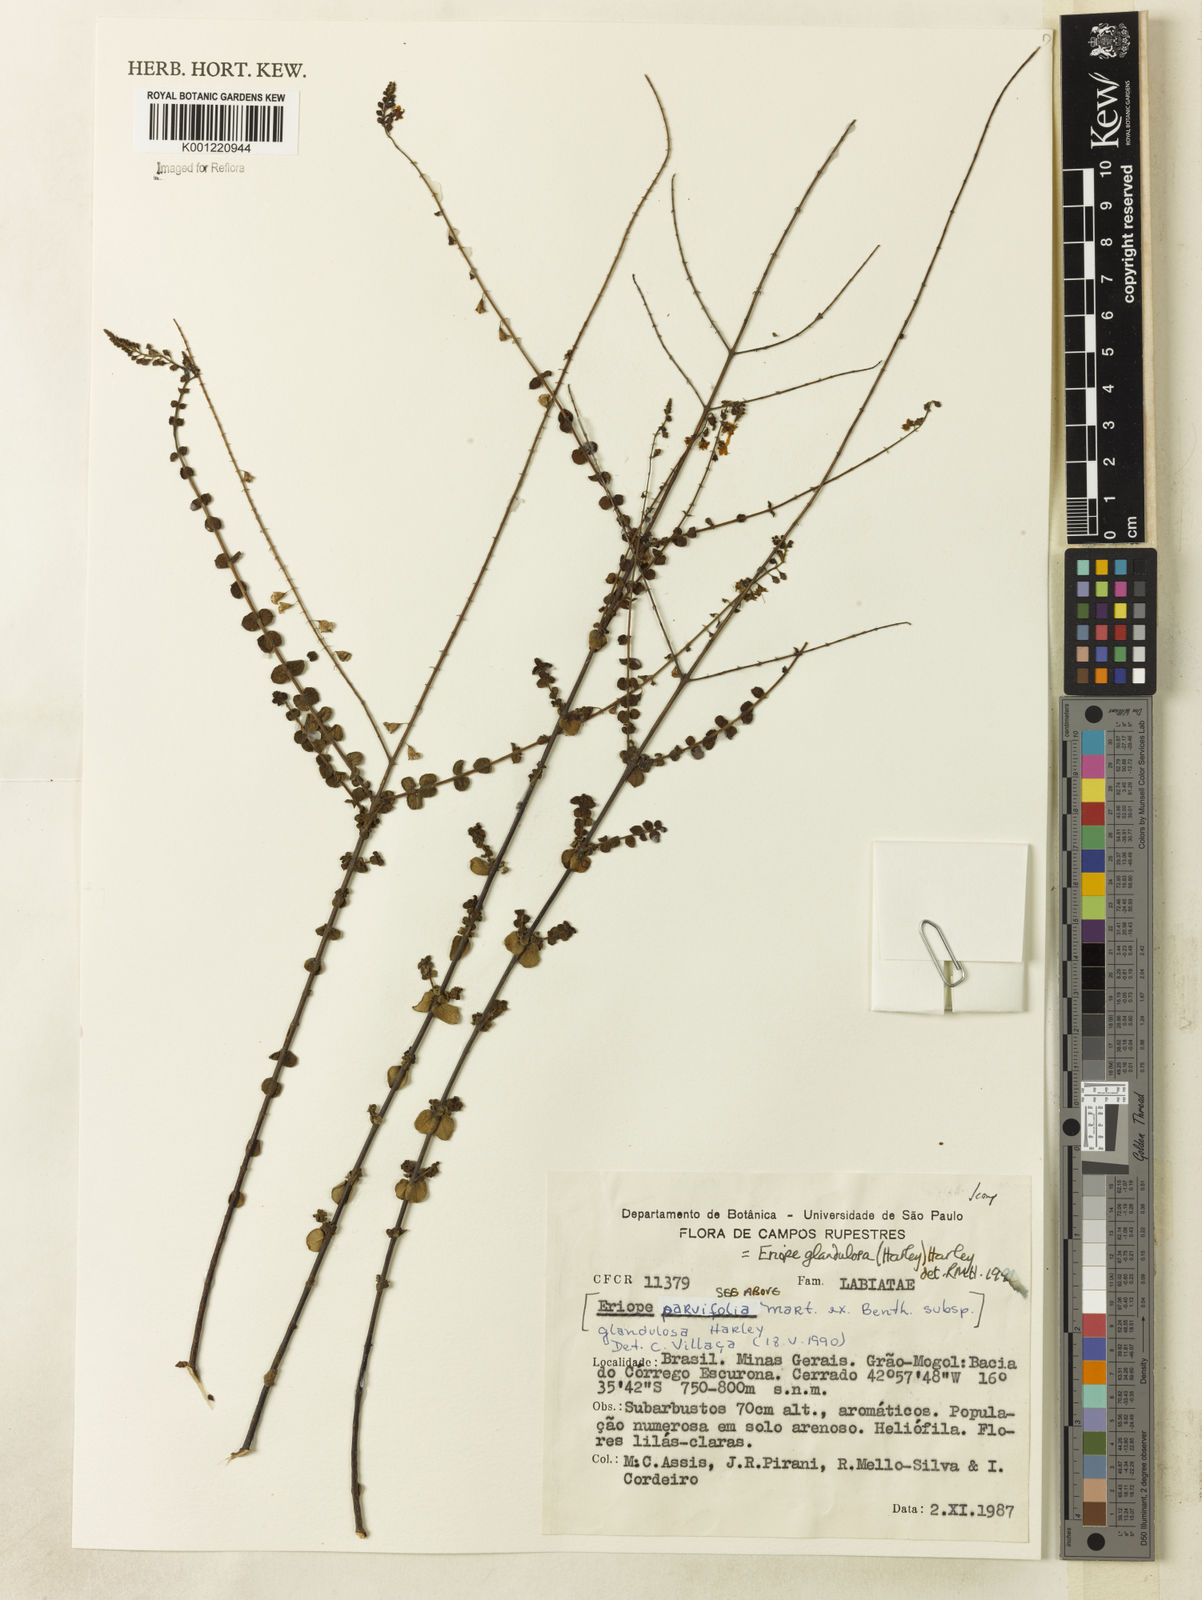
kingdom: Plantae
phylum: Tracheophyta
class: Magnoliopsida
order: Lamiales
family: Lamiaceae
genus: Eriope
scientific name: Eriope glandulosa
